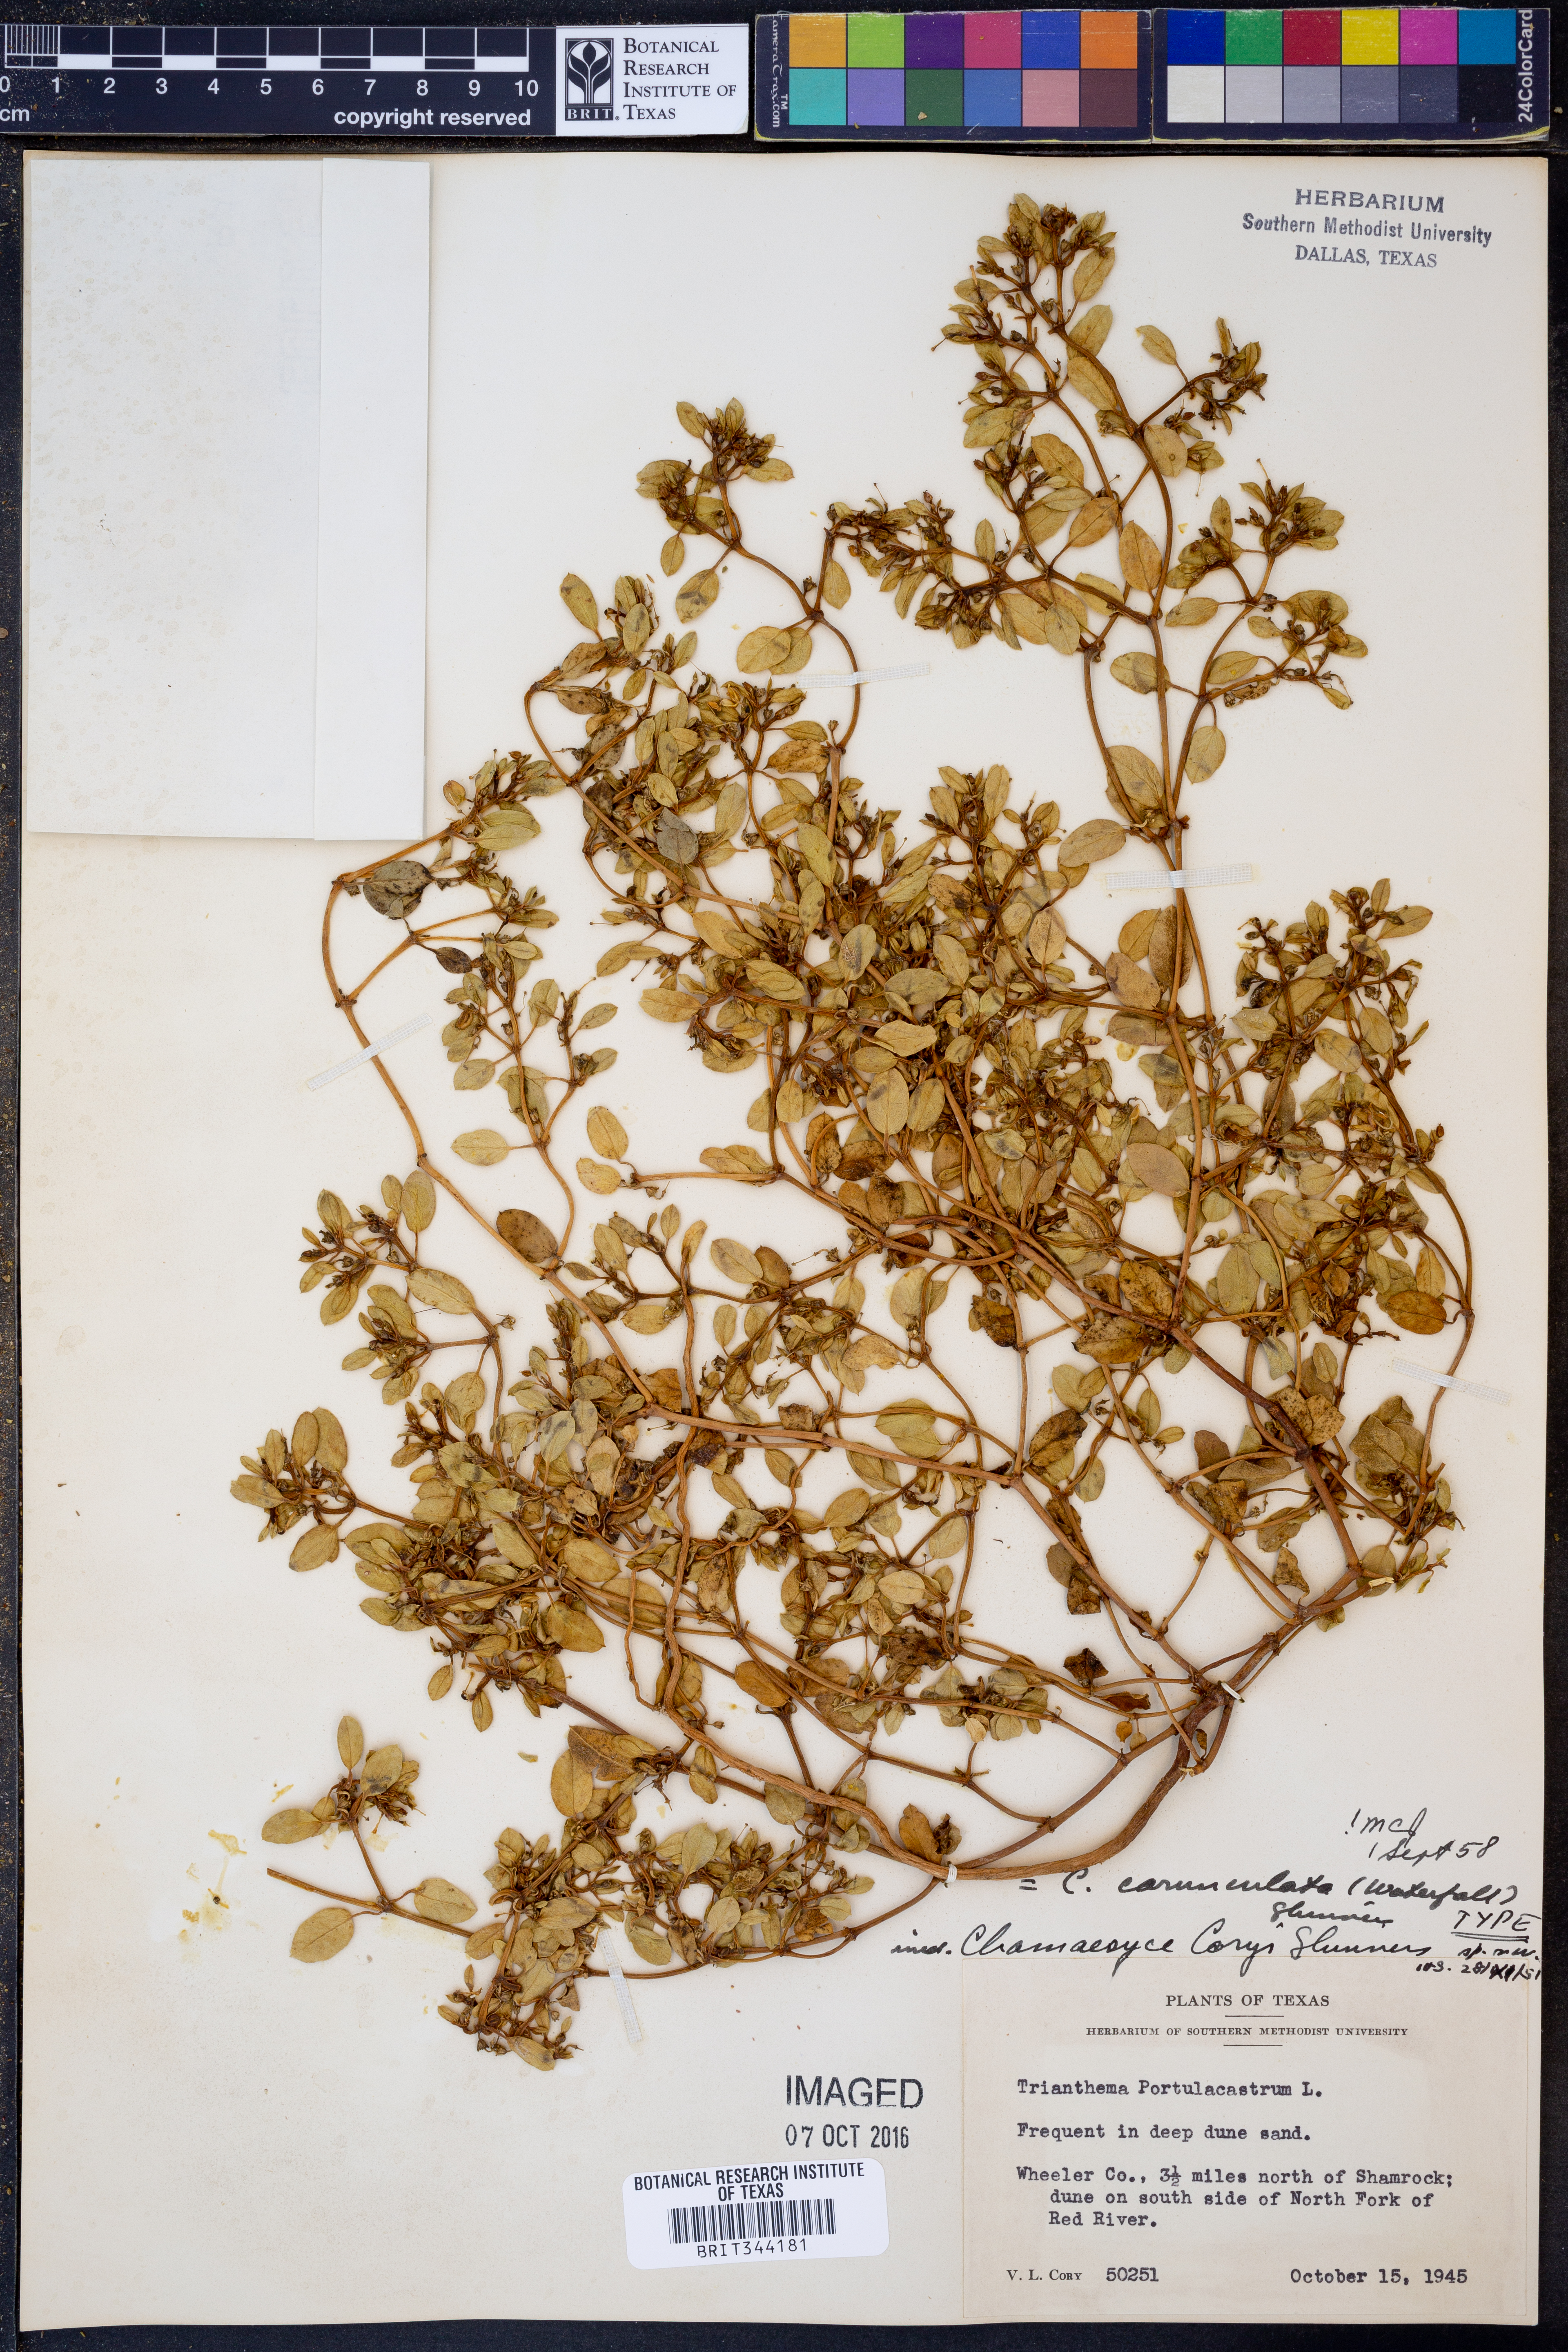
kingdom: Plantae
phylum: Tracheophyta
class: Magnoliopsida
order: Malpighiales
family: Euphorbiaceae
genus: Euphorbia
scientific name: Euphorbia carunculata
